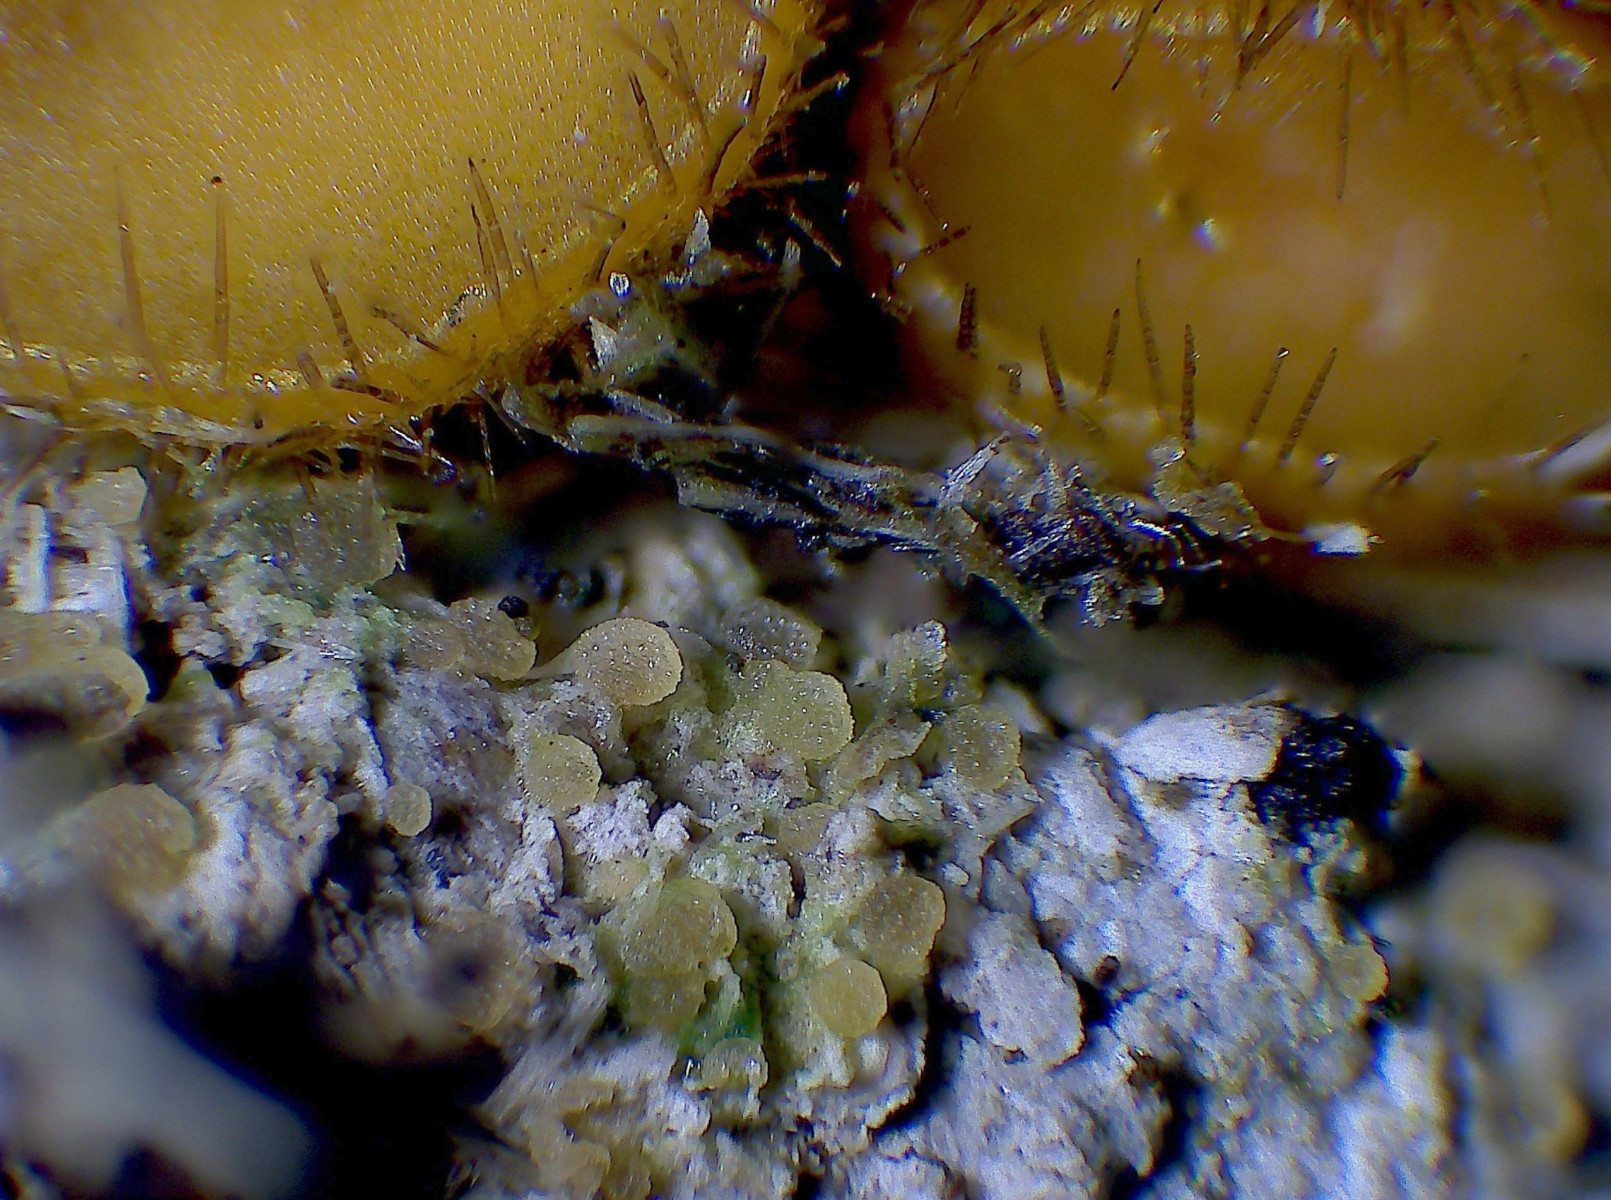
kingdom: Fungi
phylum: Ascomycota
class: Pezizomycetes
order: Pezizales
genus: Coprotus
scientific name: Coprotus granuliformis
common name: ballonsækket småbæger
